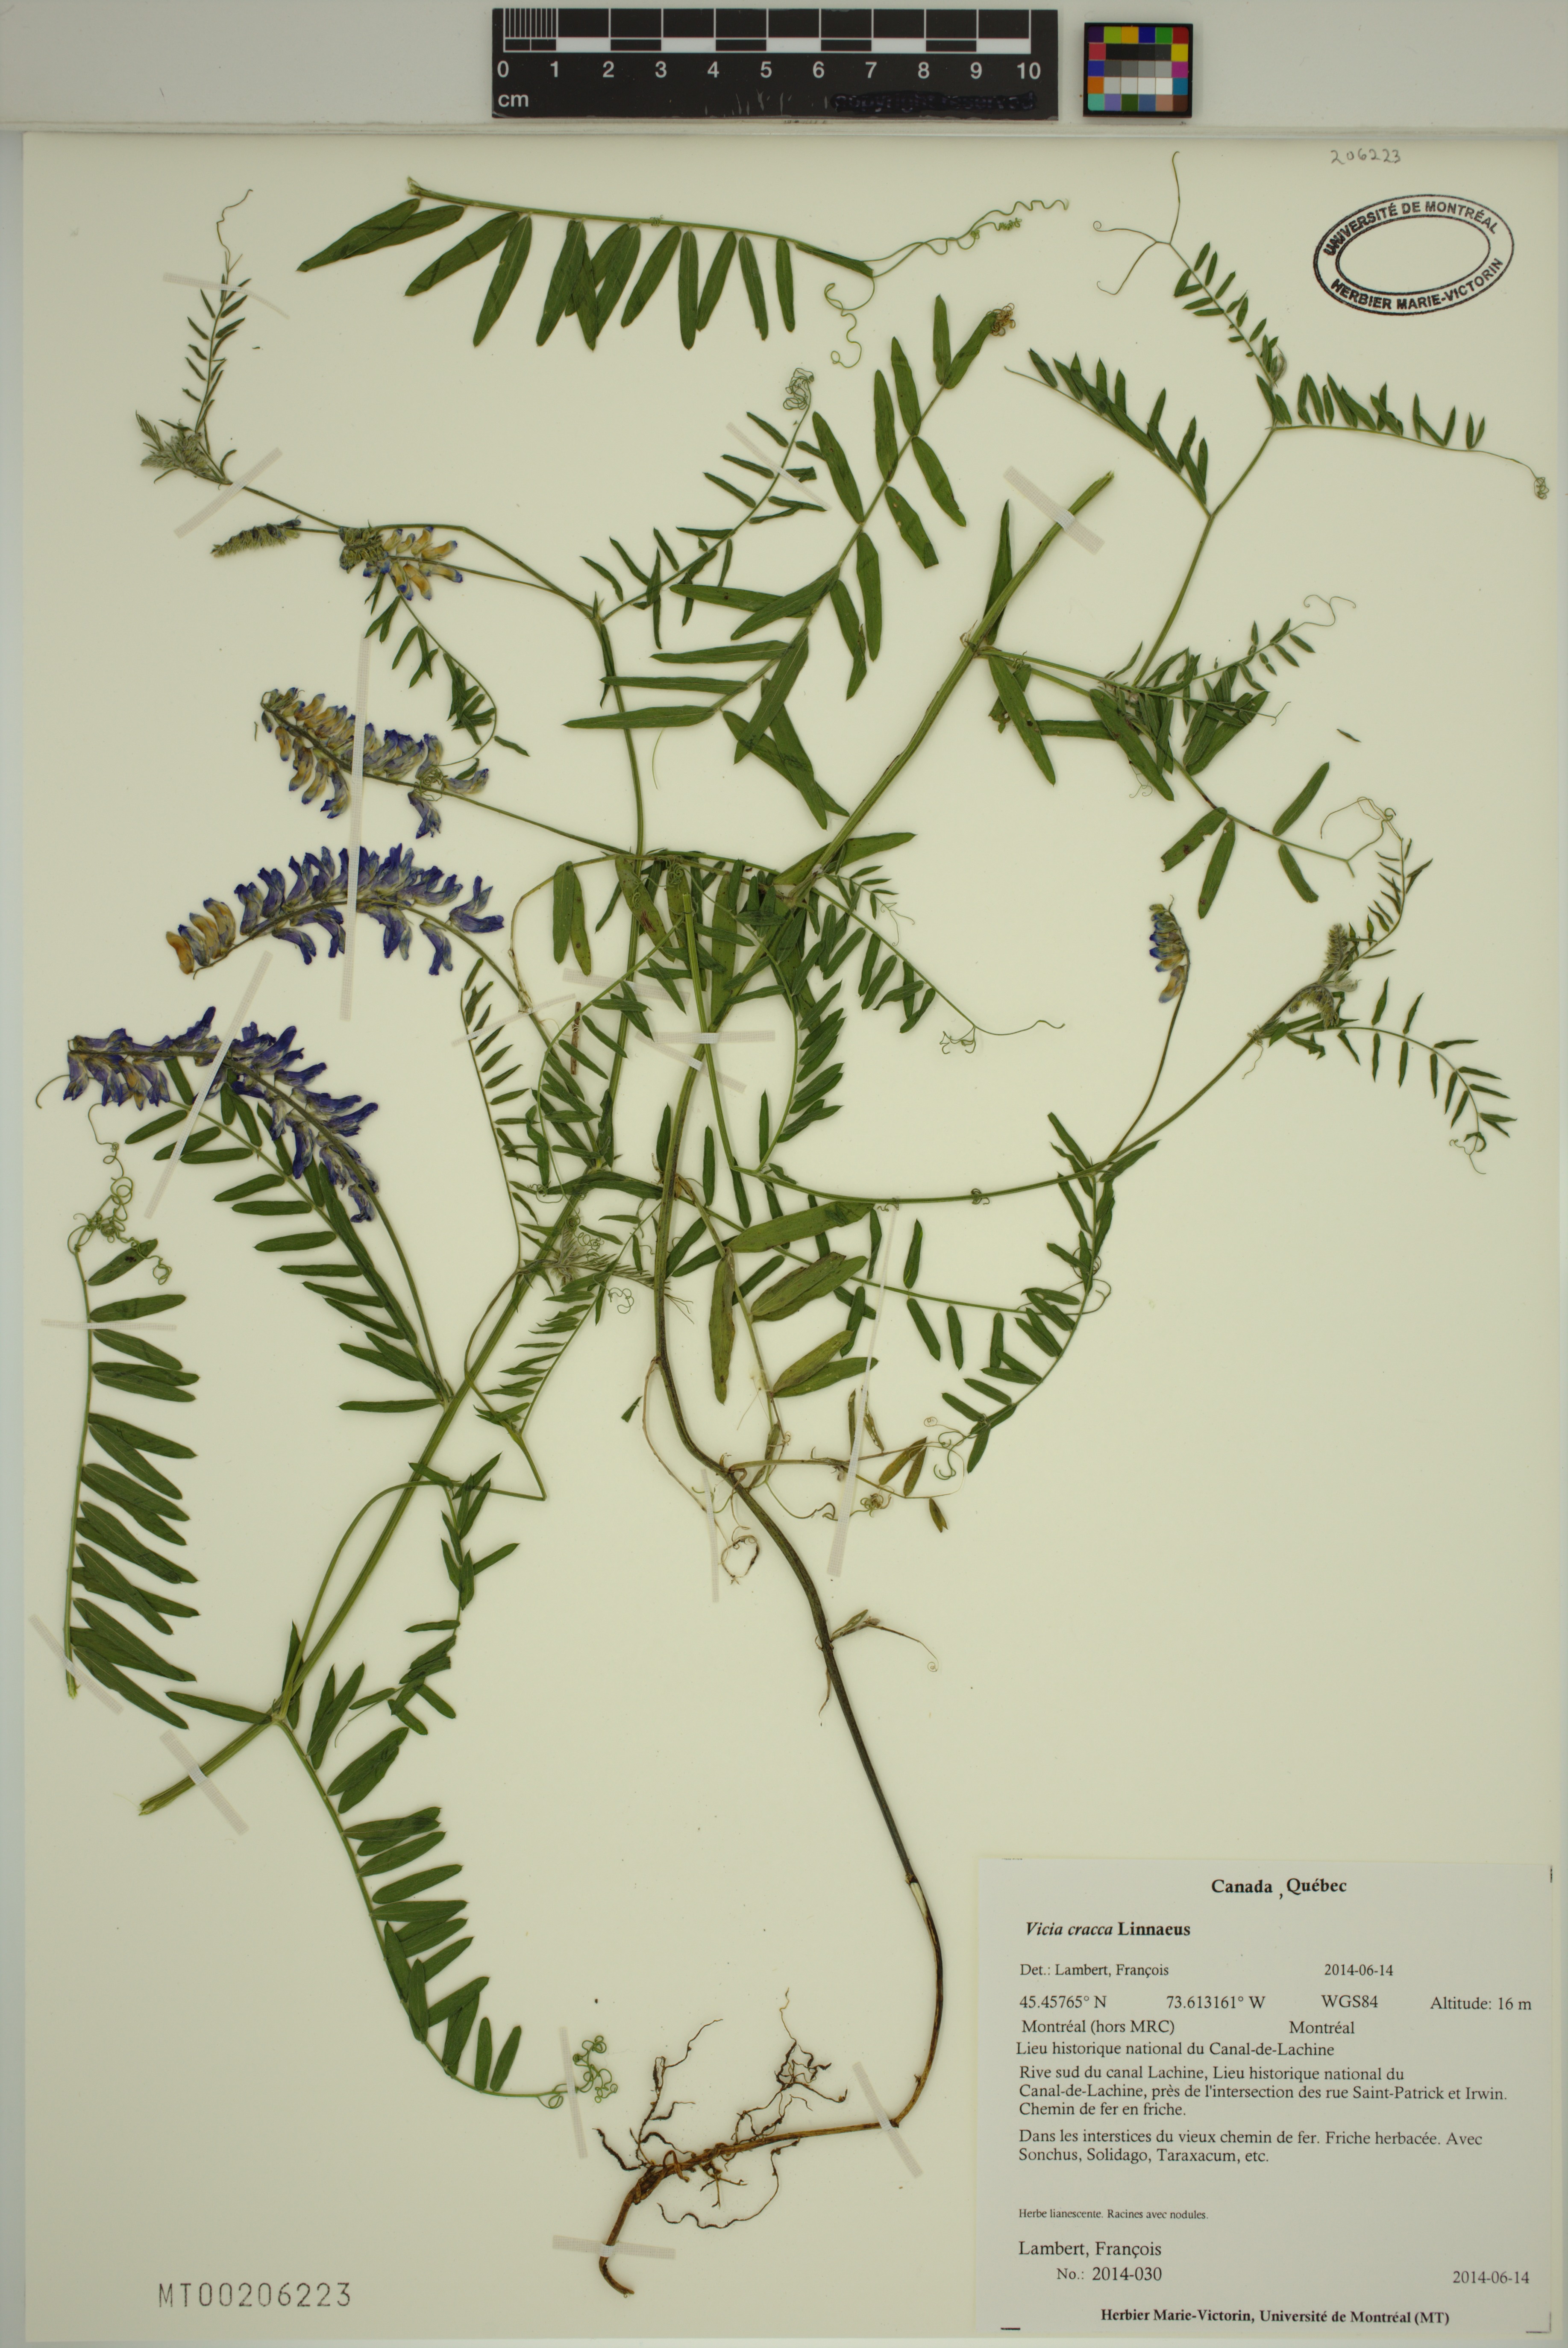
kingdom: Plantae
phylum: Tracheophyta
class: Magnoliopsida
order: Fabales
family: Fabaceae
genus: Vicia
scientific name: Vicia cracca
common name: Bird vetch
